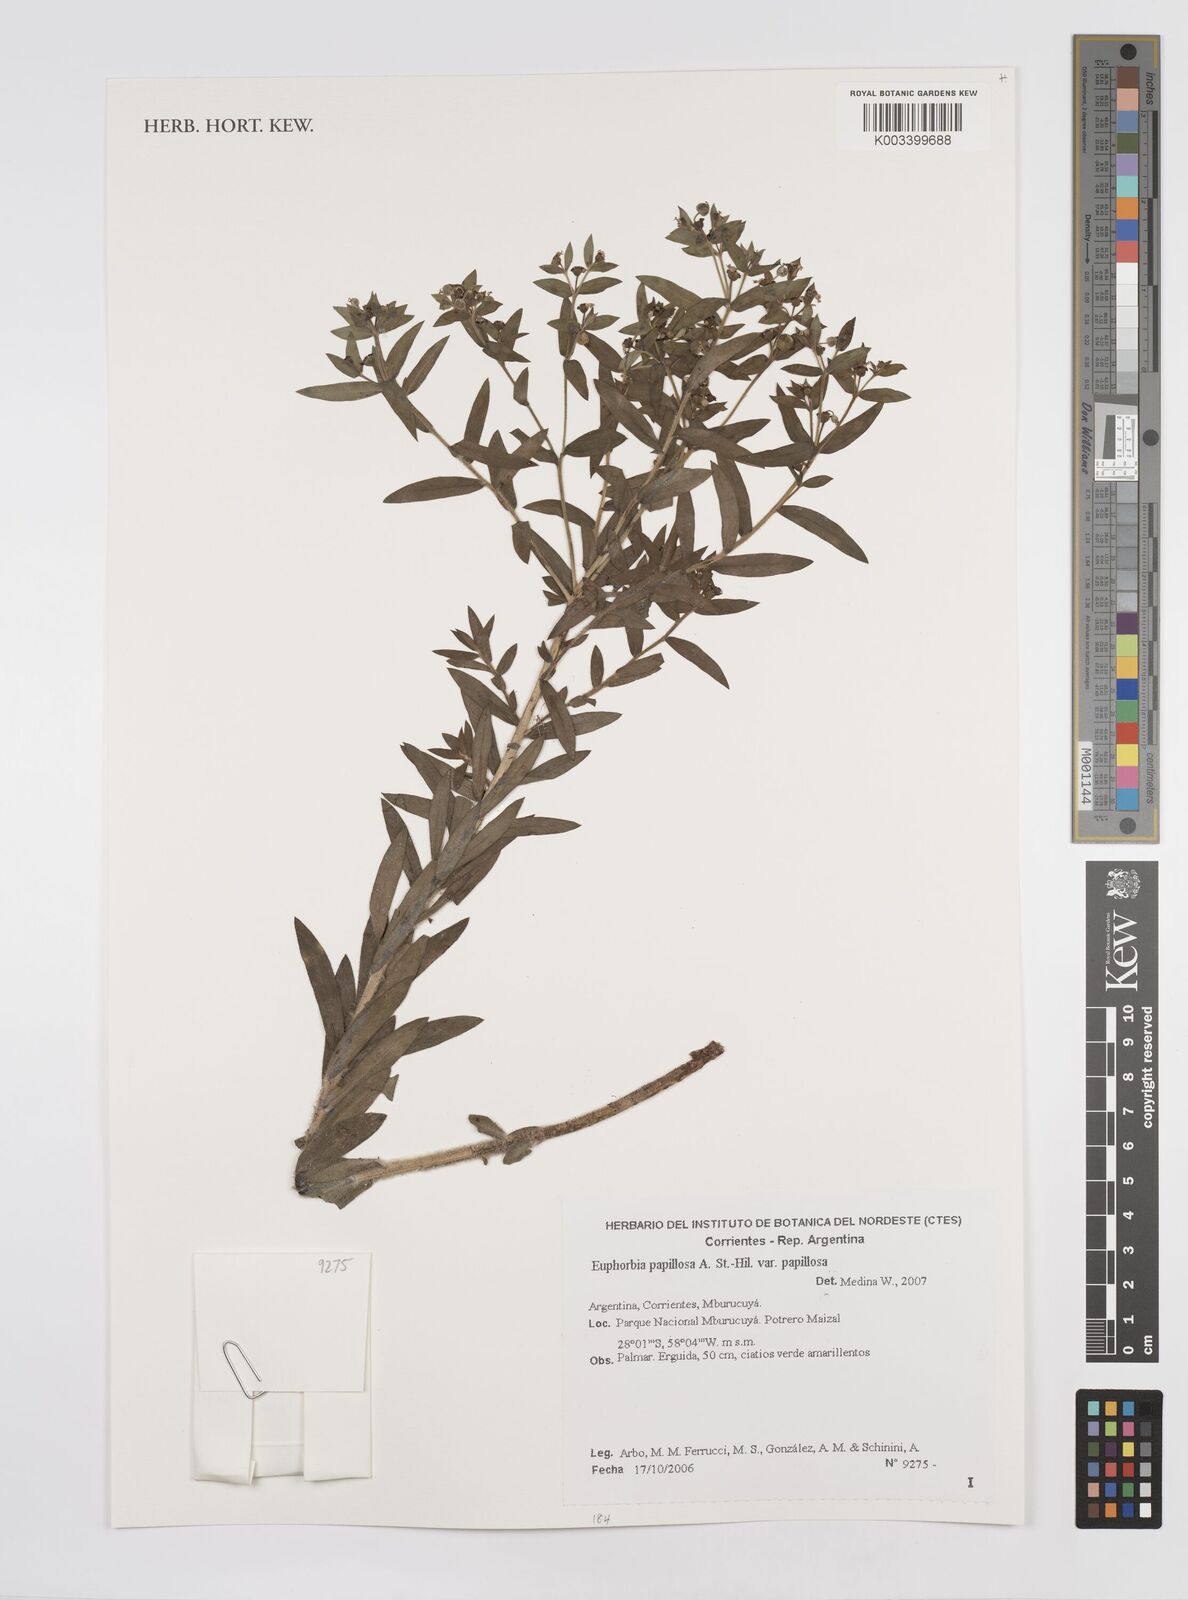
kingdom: Plantae
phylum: Tracheophyta
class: Magnoliopsida
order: Malpighiales
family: Euphorbiaceae
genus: Euphorbia
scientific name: Euphorbia
